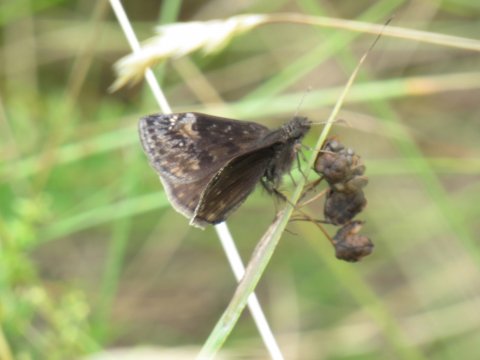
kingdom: Animalia
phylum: Arthropoda
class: Insecta
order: Lepidoptera
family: Hesperiidae
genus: Gesta
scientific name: Gesta
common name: Wild Indigo Duskywing
